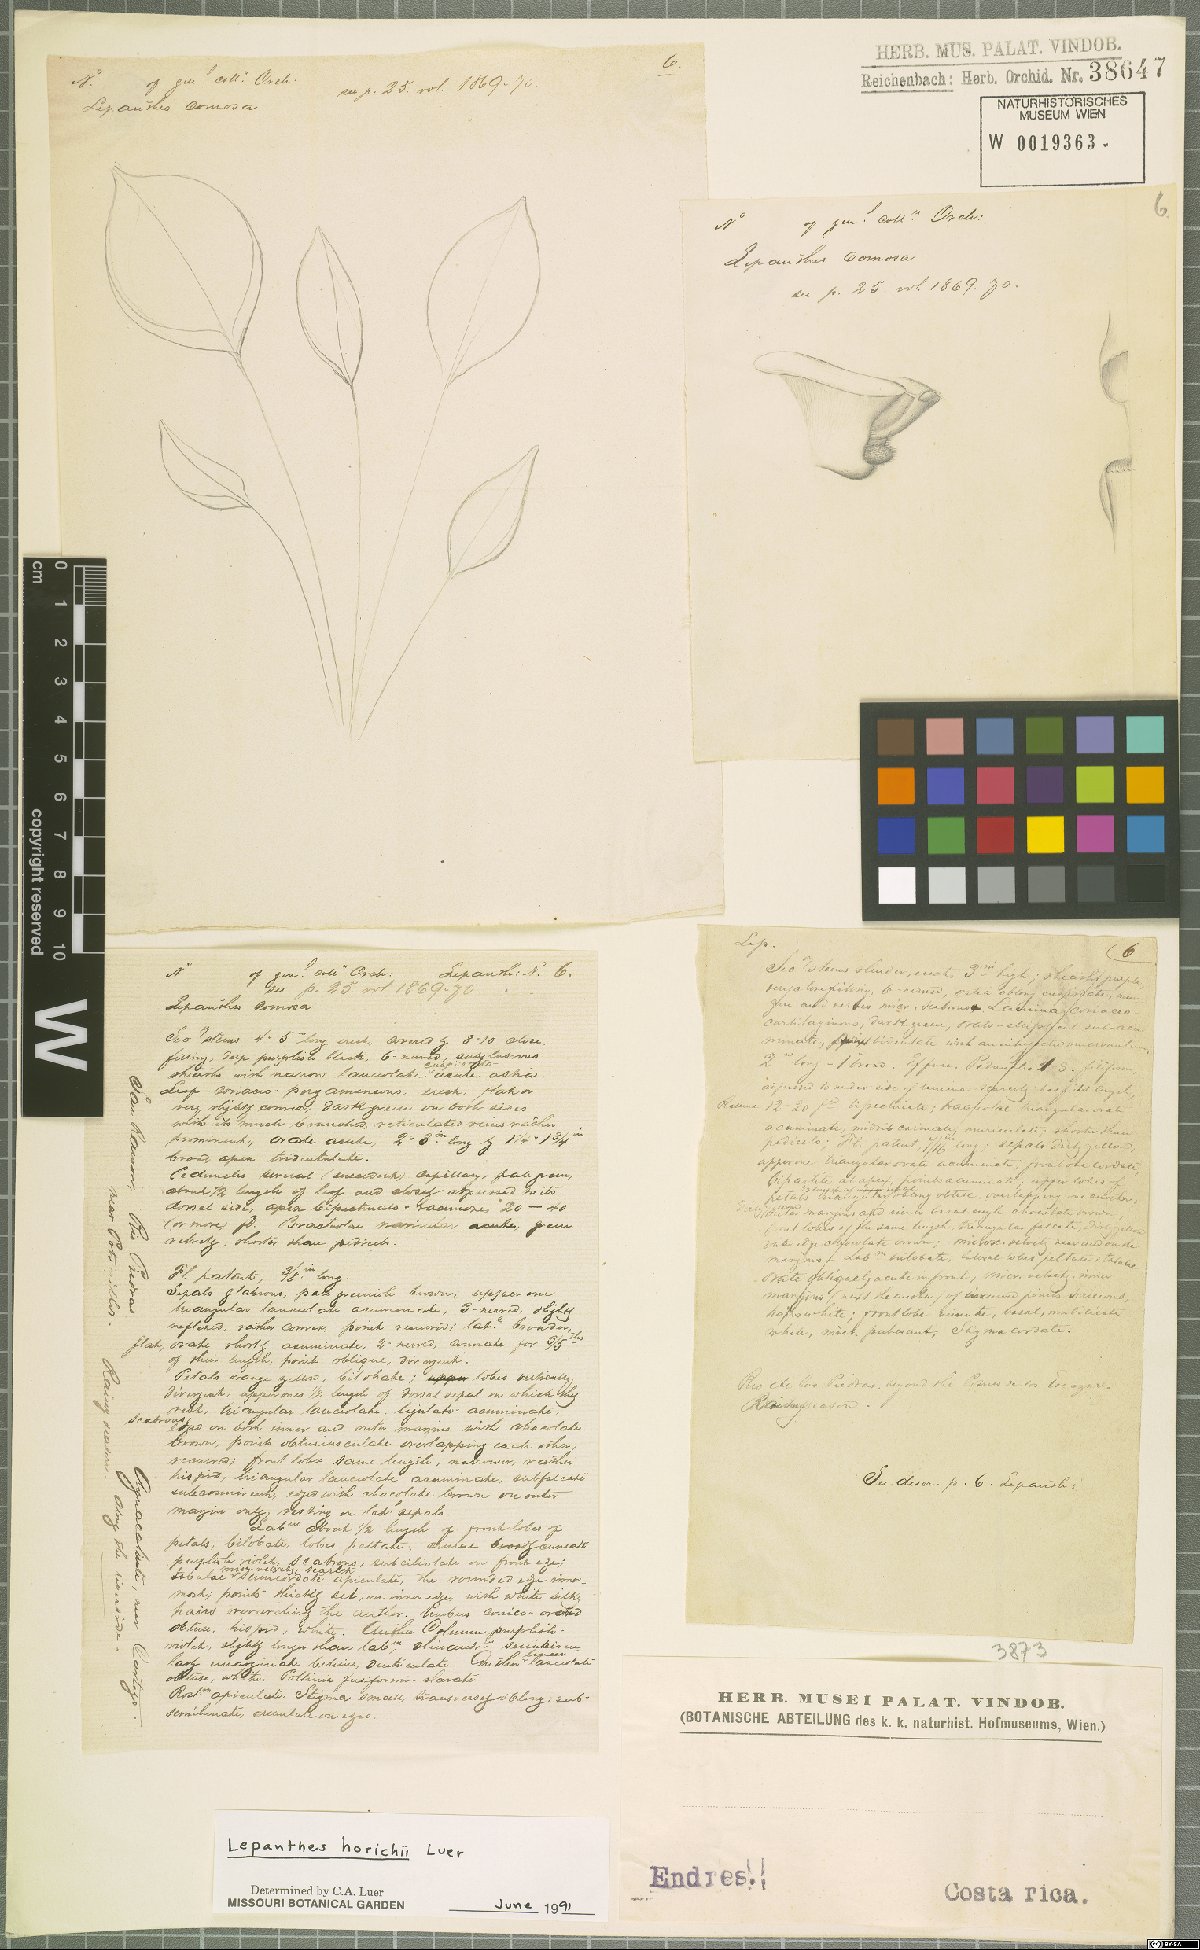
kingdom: Plantae
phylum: Tracheophyta
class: Liliopsida
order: Asparagales
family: Orchidaceae
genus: Lepanthes
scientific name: Lepanthes horichii
